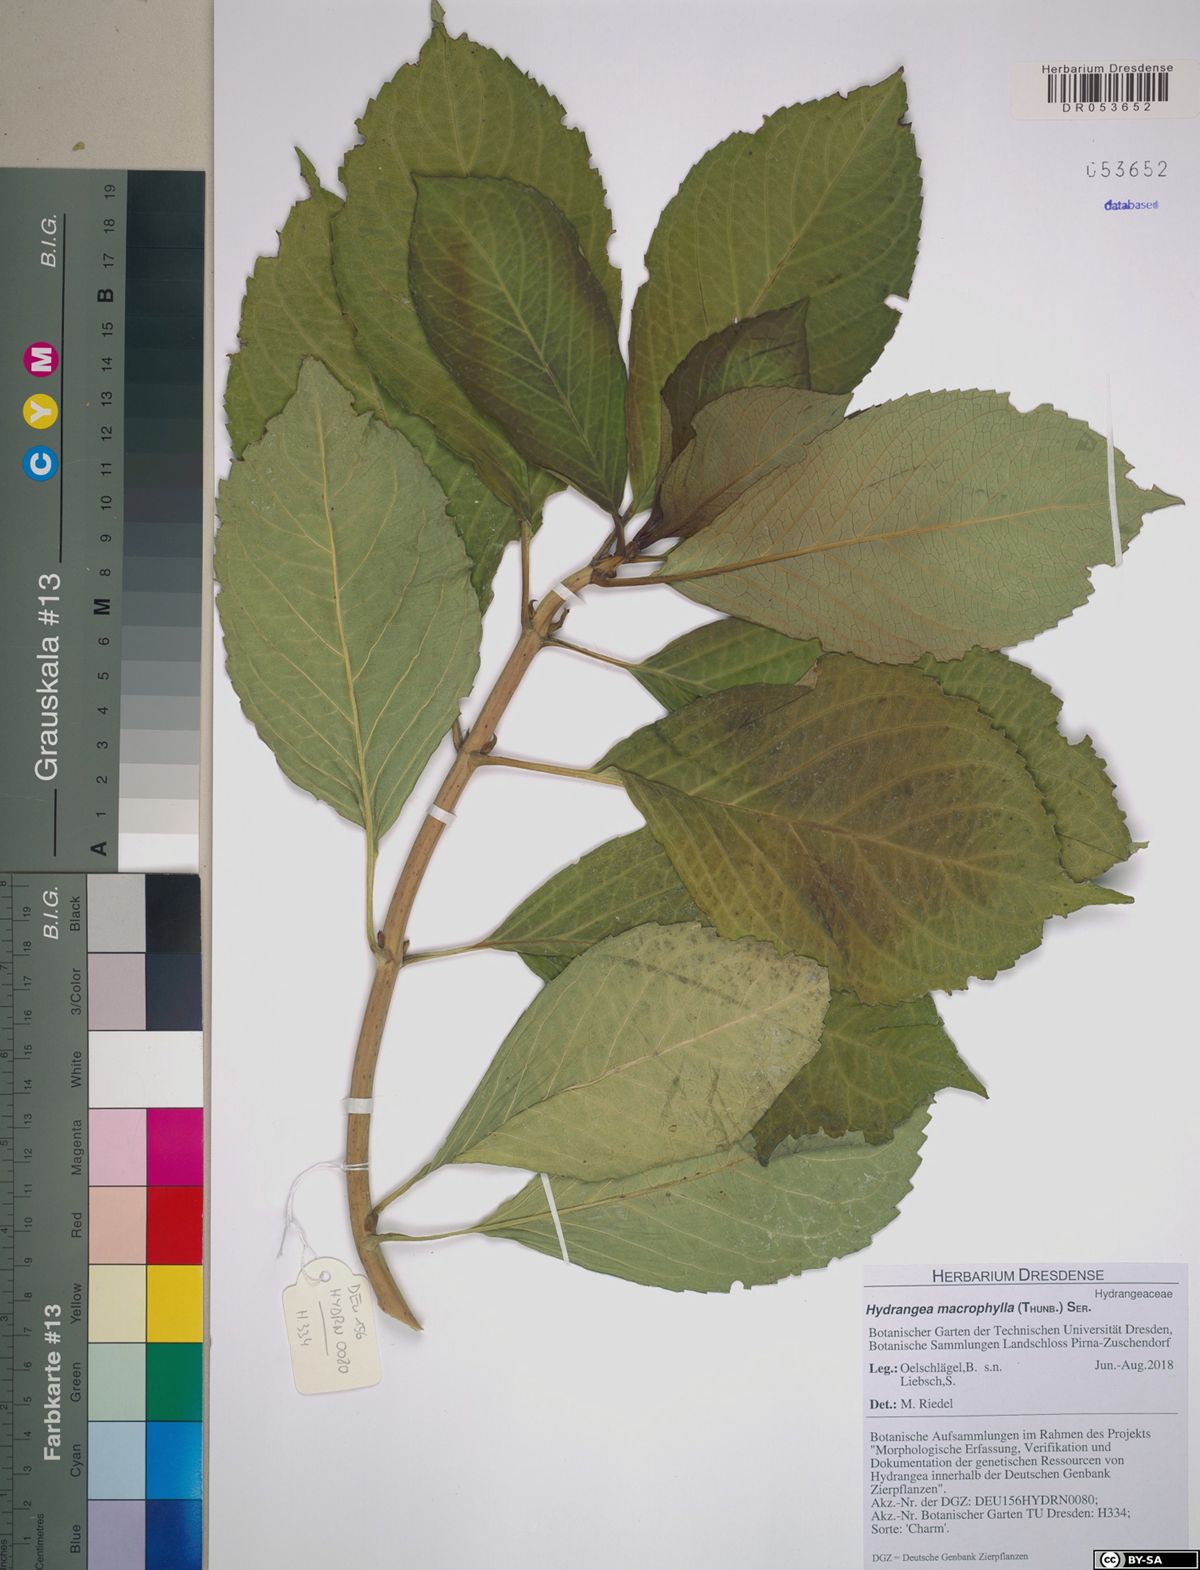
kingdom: Plantae
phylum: Tracheophyta
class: Magnoliopsida
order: Cornales
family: Hydrangeaceae
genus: Hydrangea
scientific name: Hydrangea macrophylla
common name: Hydrangea
